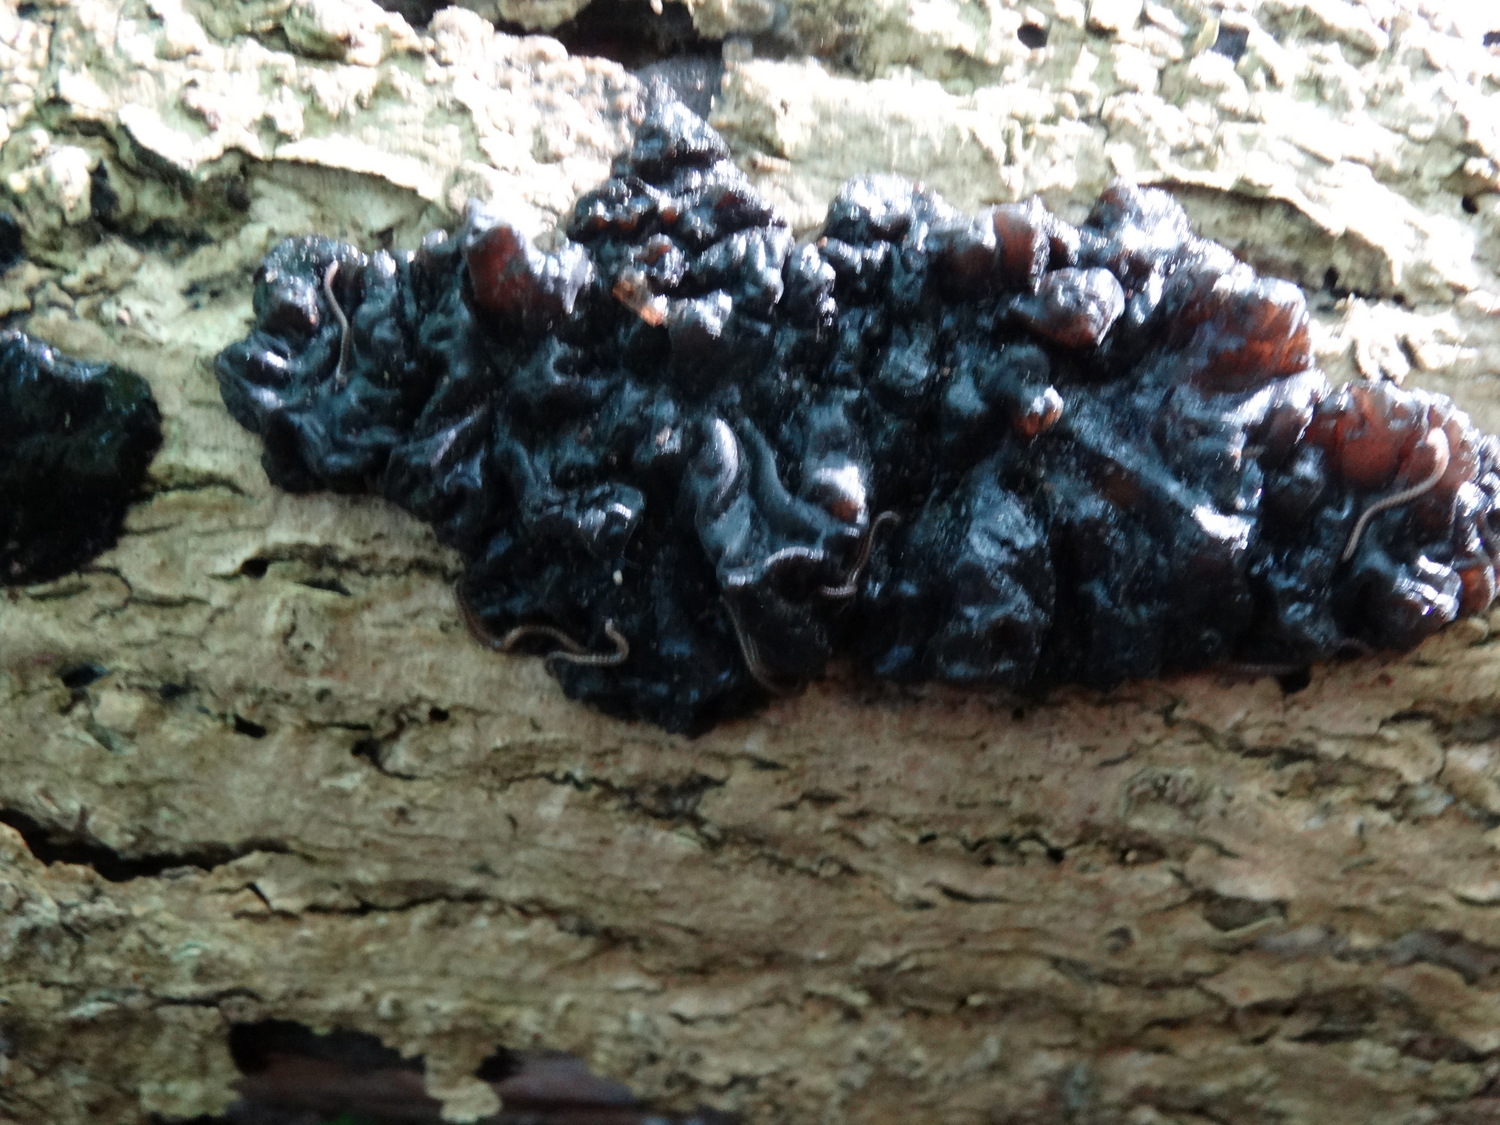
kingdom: Fungi
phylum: Basidiomycota
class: Agaricomycetes
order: Auriculariales
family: Auriculariaceae
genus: Exidia
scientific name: Exidia nigricans
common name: almindelig bævretop
